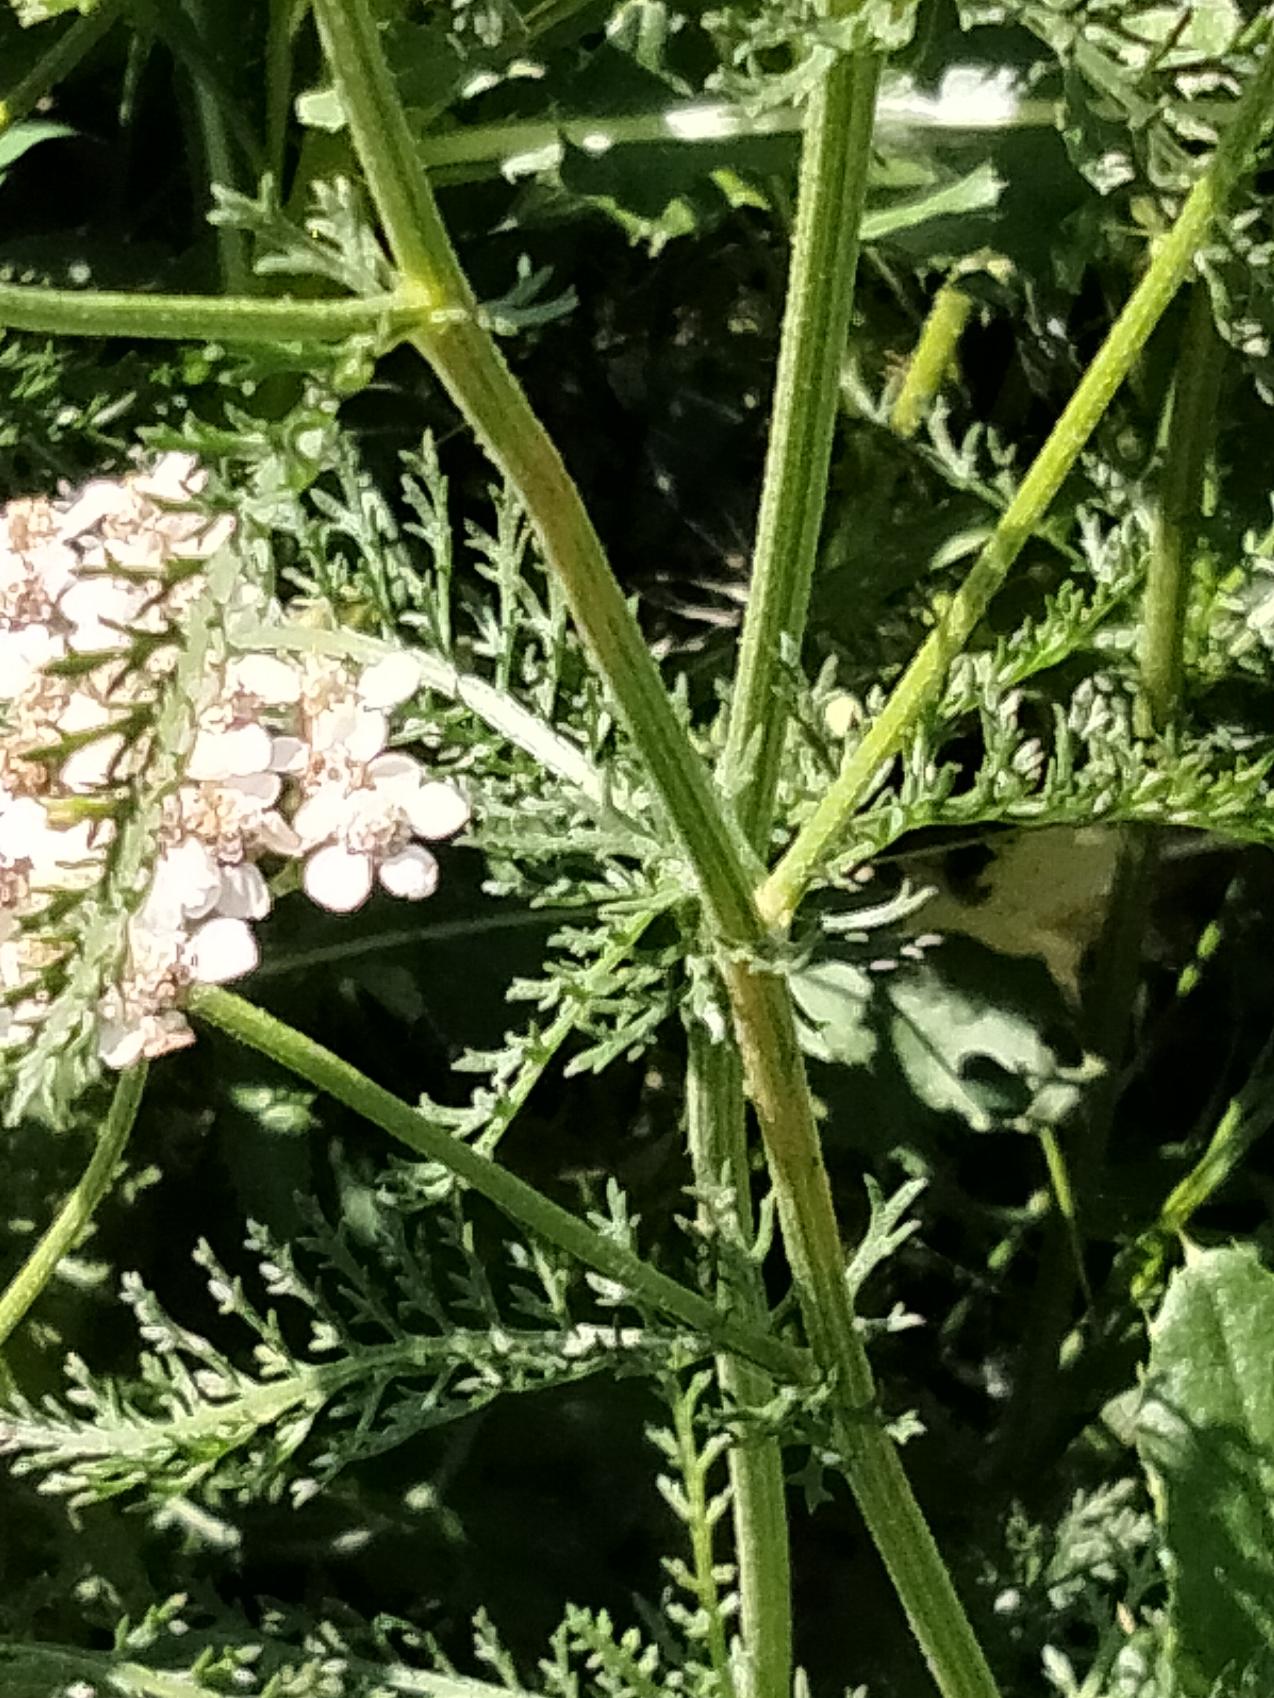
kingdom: Plantae
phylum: Tracheophyta
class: Magnoliopsida
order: Asterales
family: Asteraceae
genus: Achillea
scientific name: Achillea millefolium
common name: Almindelig røllike
